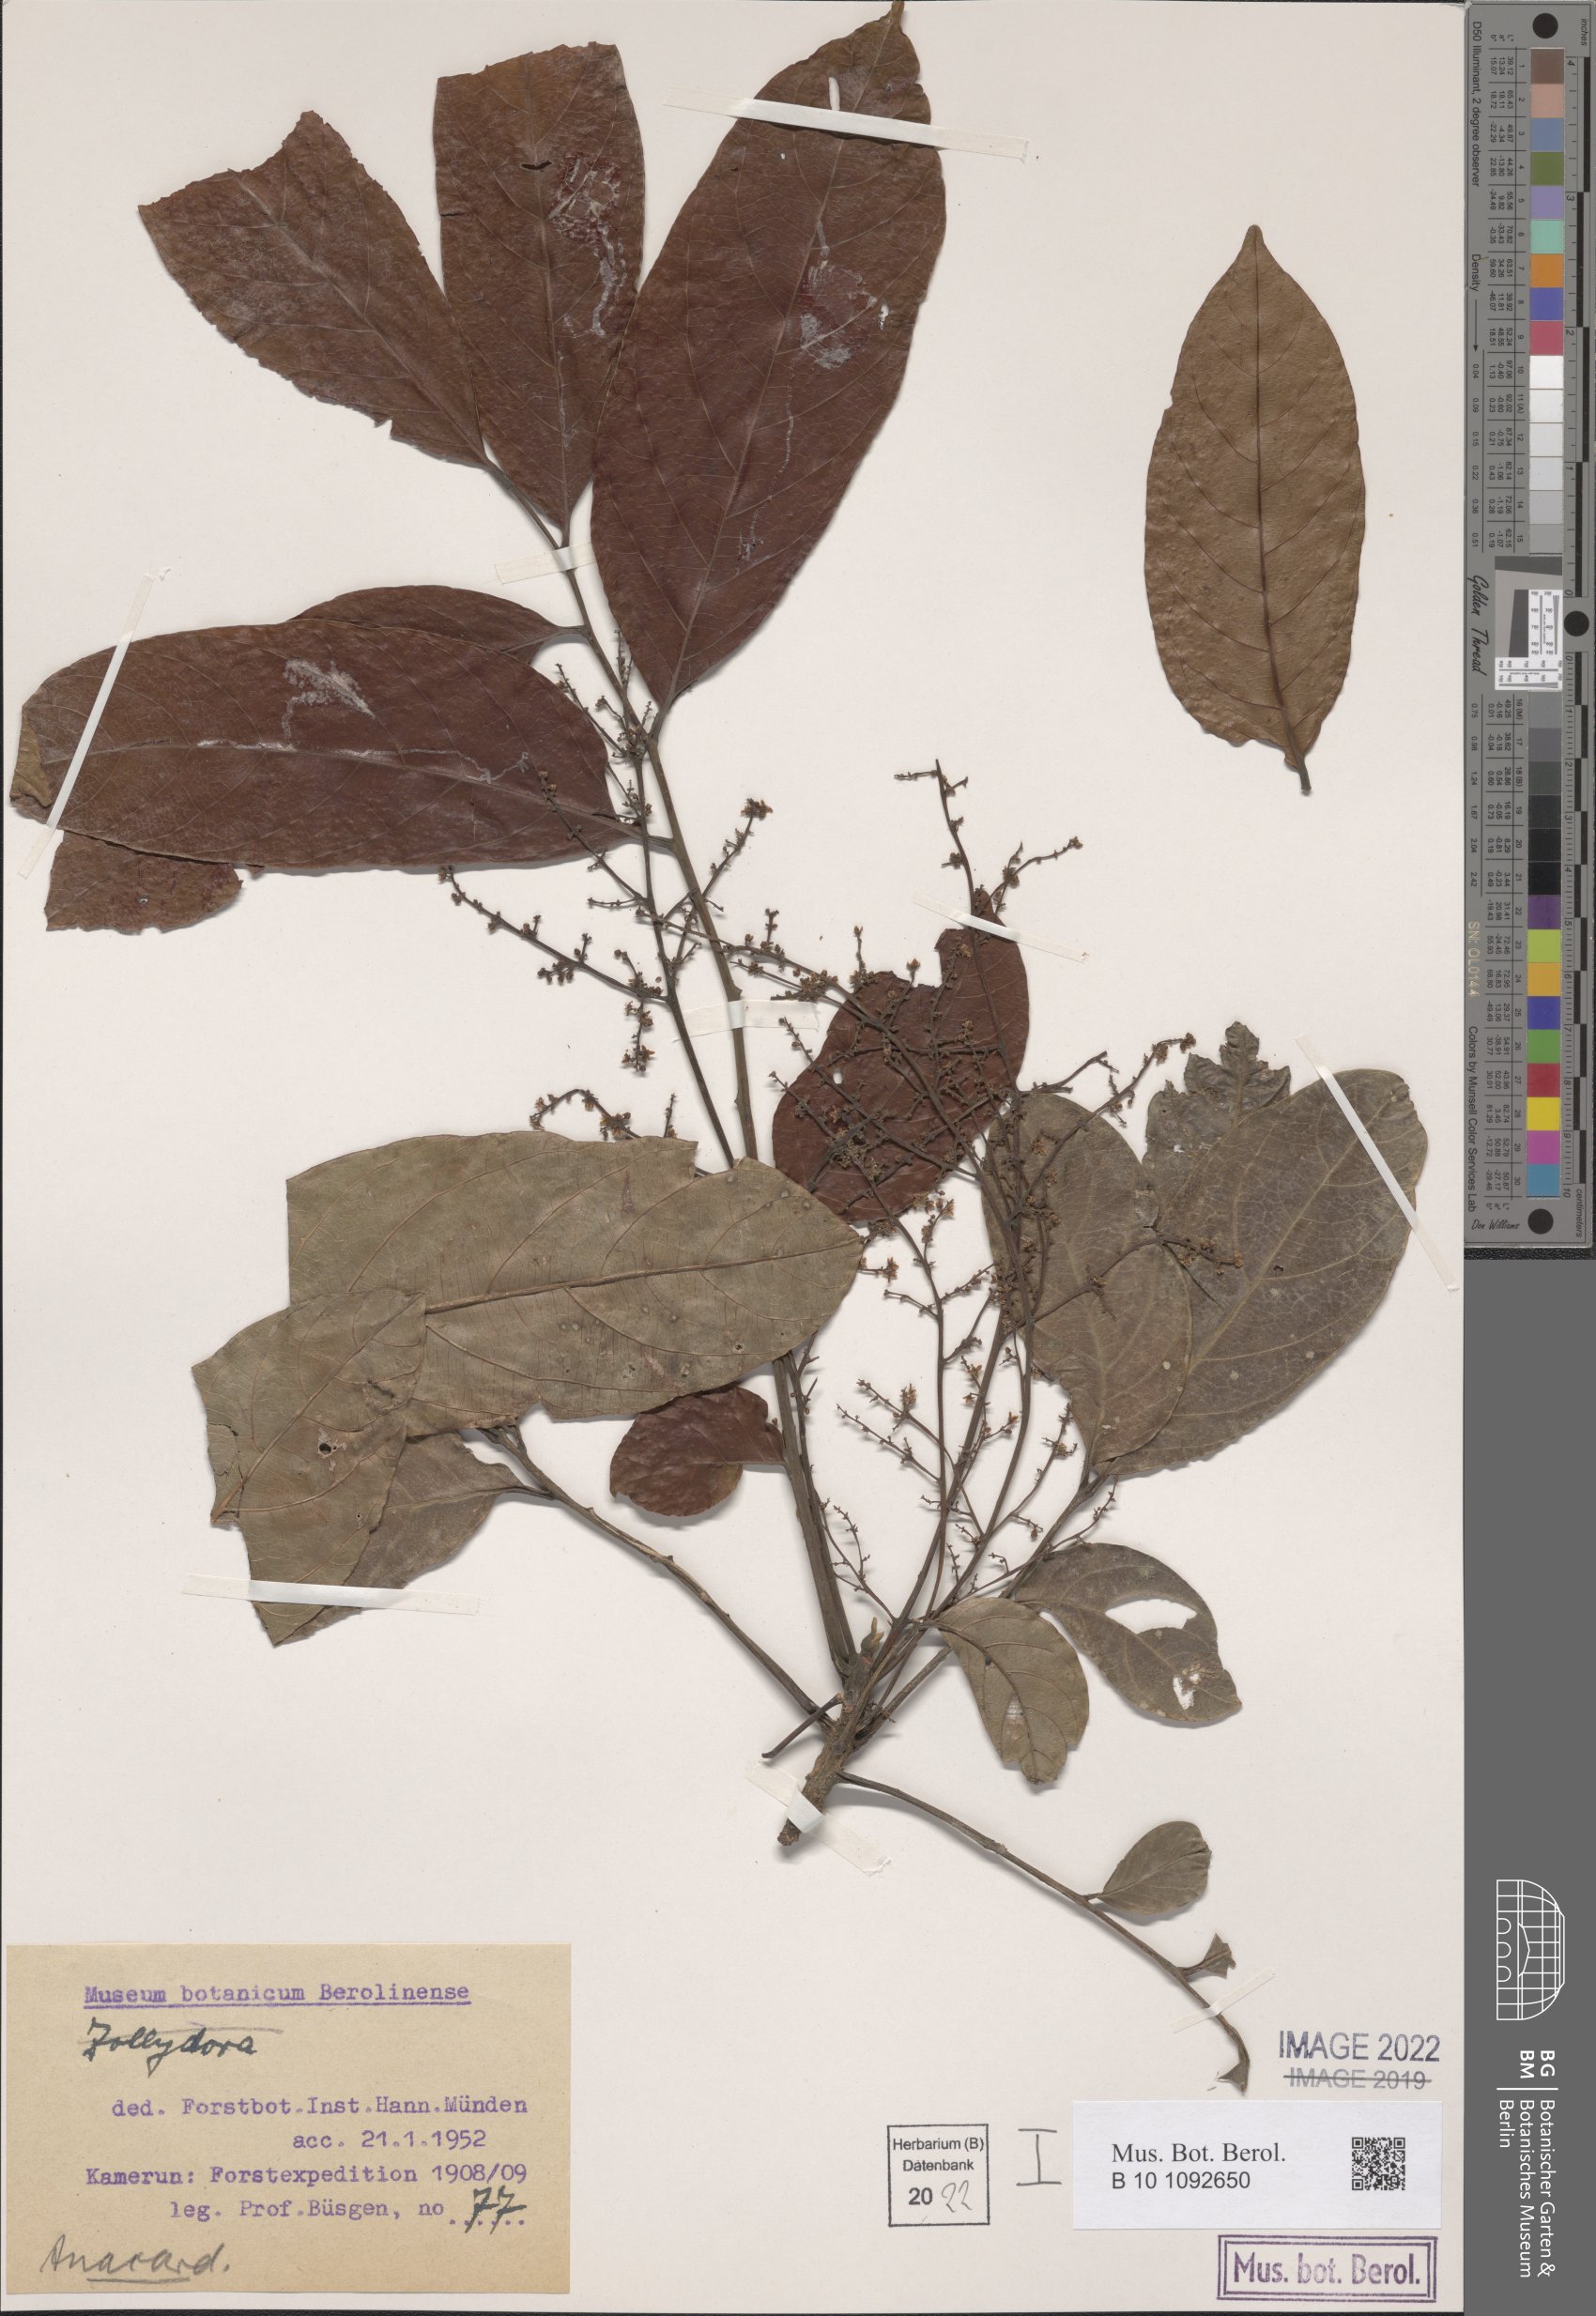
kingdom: Plantae
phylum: Tracheophyta
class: Magnoliopsida
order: Sapindales
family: Anacardiaceae
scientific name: Anacardiaceae
